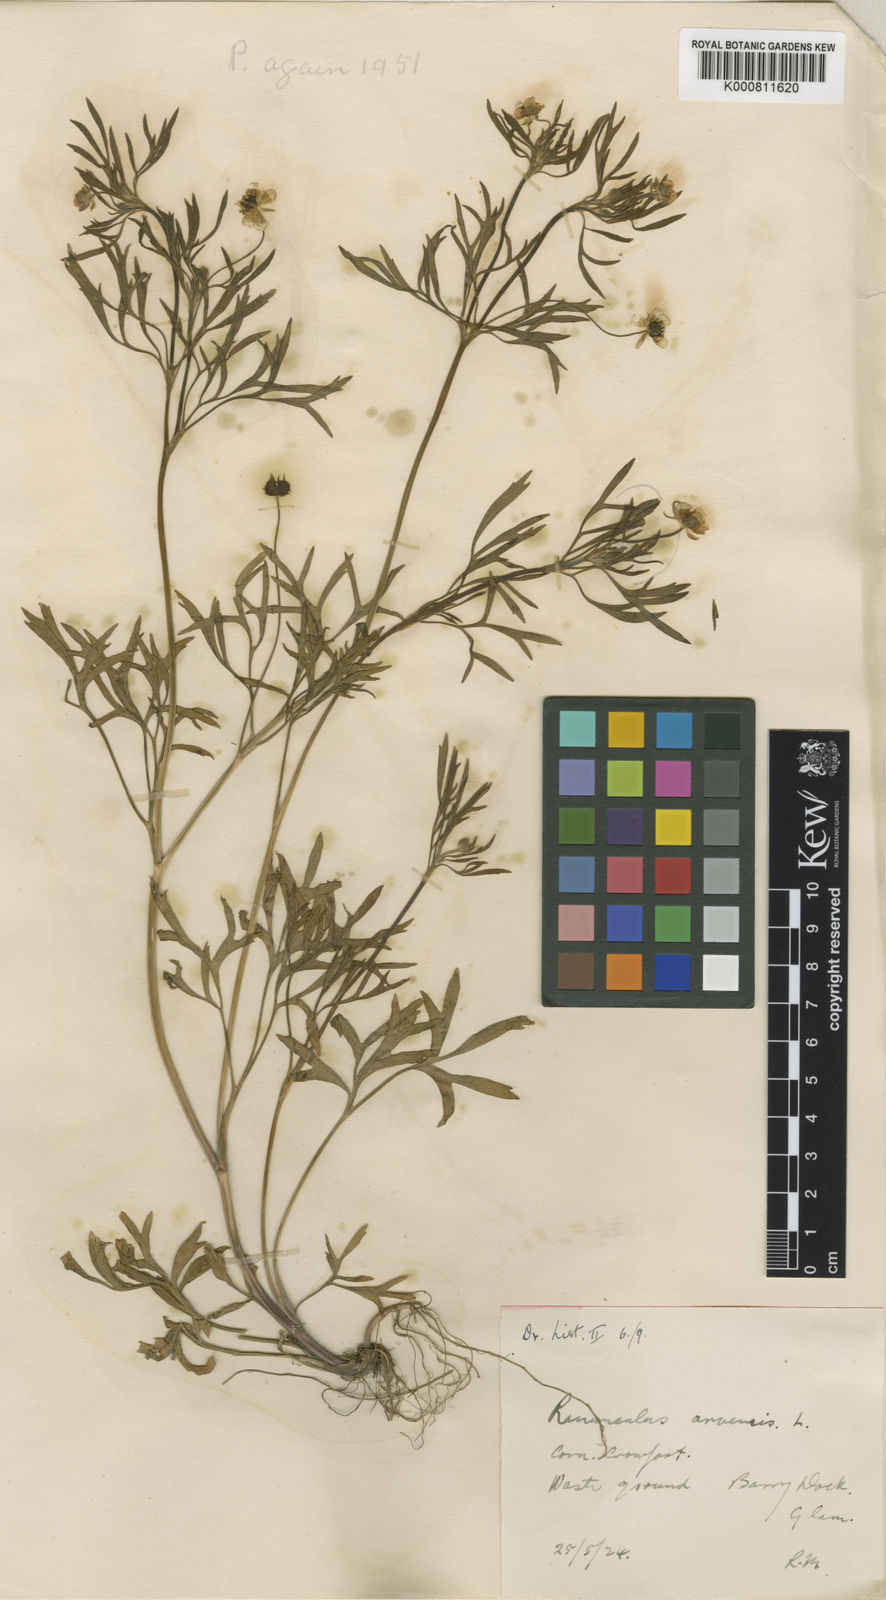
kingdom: Plantae
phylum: Tracheophyta
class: Magnoliopsida
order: Ranunculales
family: Ranunculaceae
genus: Ranunculus
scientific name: Ranunculus arvensis
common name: Corn buttercup
